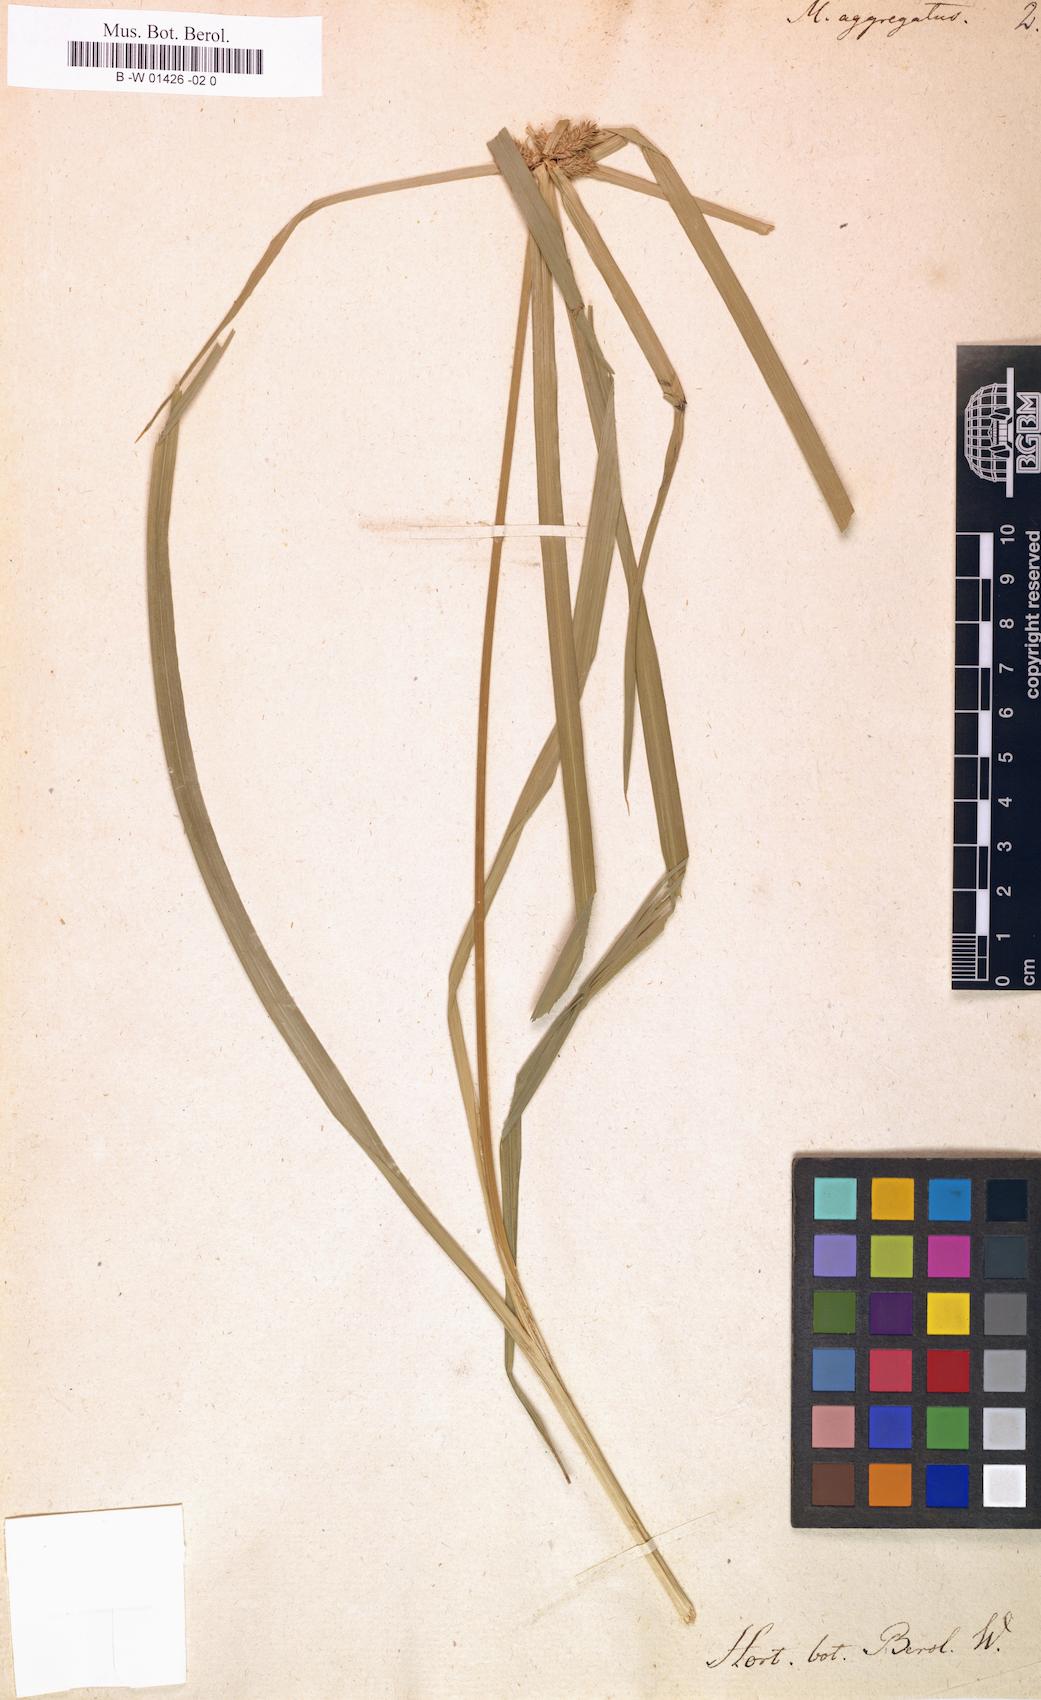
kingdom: Plantae
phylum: Tracheophyta
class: Liliopsida
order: Poales
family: Cyperaceae
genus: Cyperus
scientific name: Cyperus aggregatus
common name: Inflatedscale flatsedge
